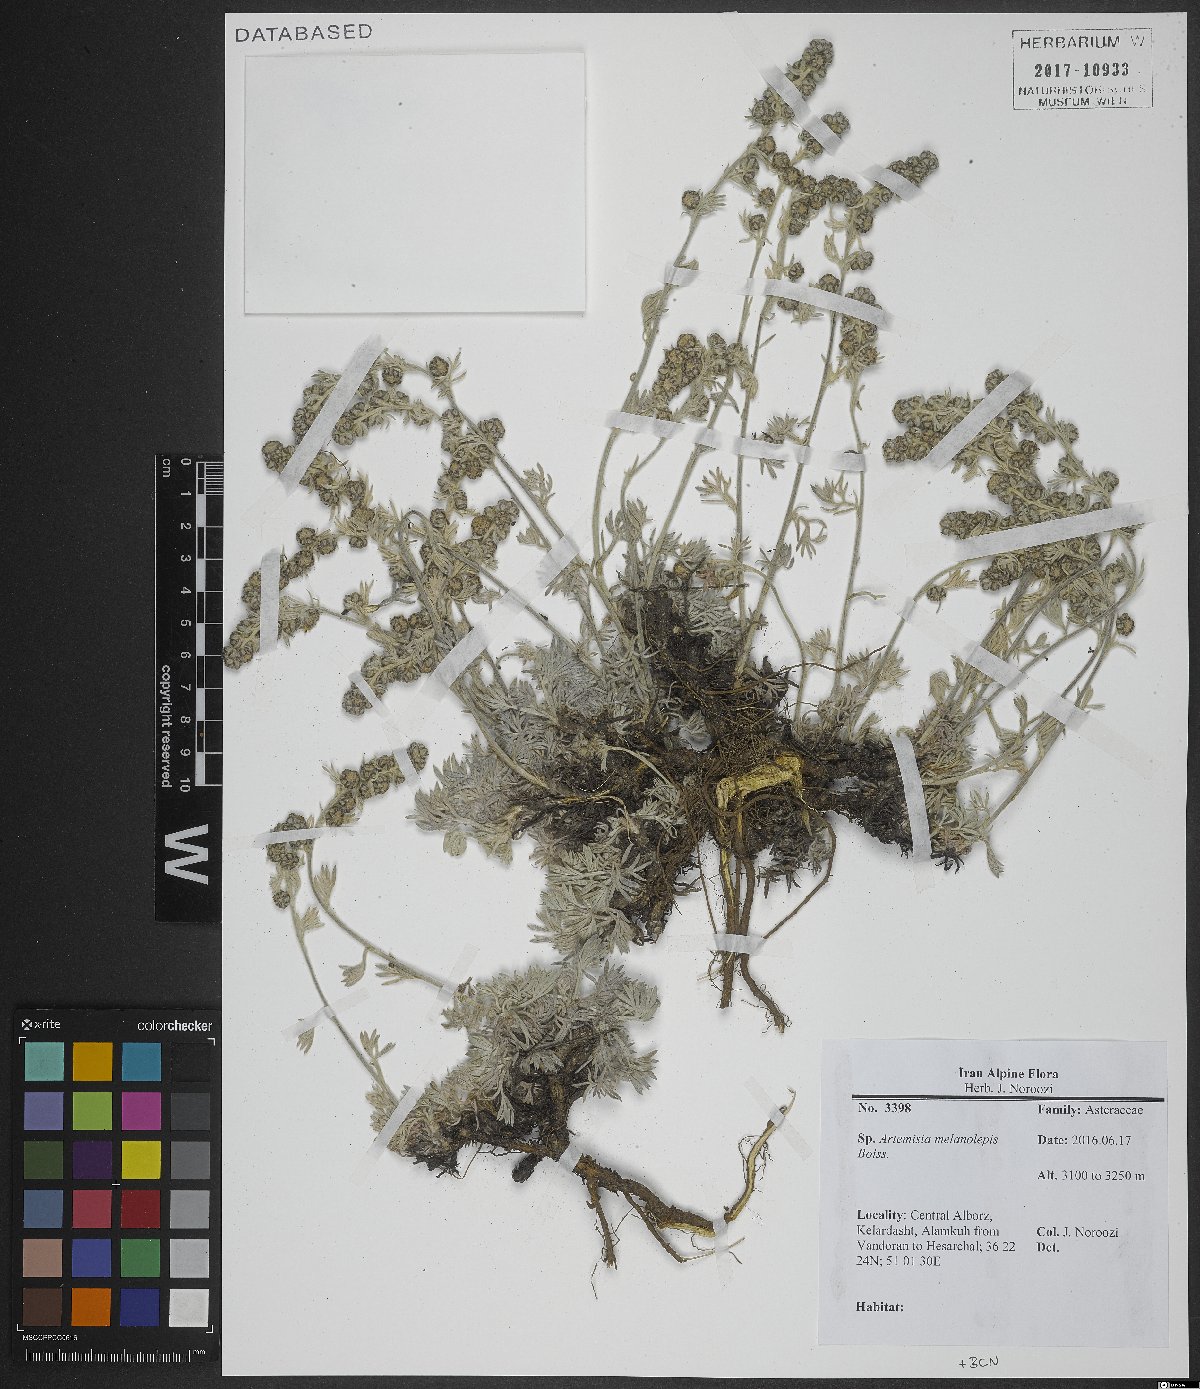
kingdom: Plantae
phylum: Tracheophyta
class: Magnoliopsida
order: Asterales
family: Asteraceae
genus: Artemisia
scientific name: Artemisia melanolepis
